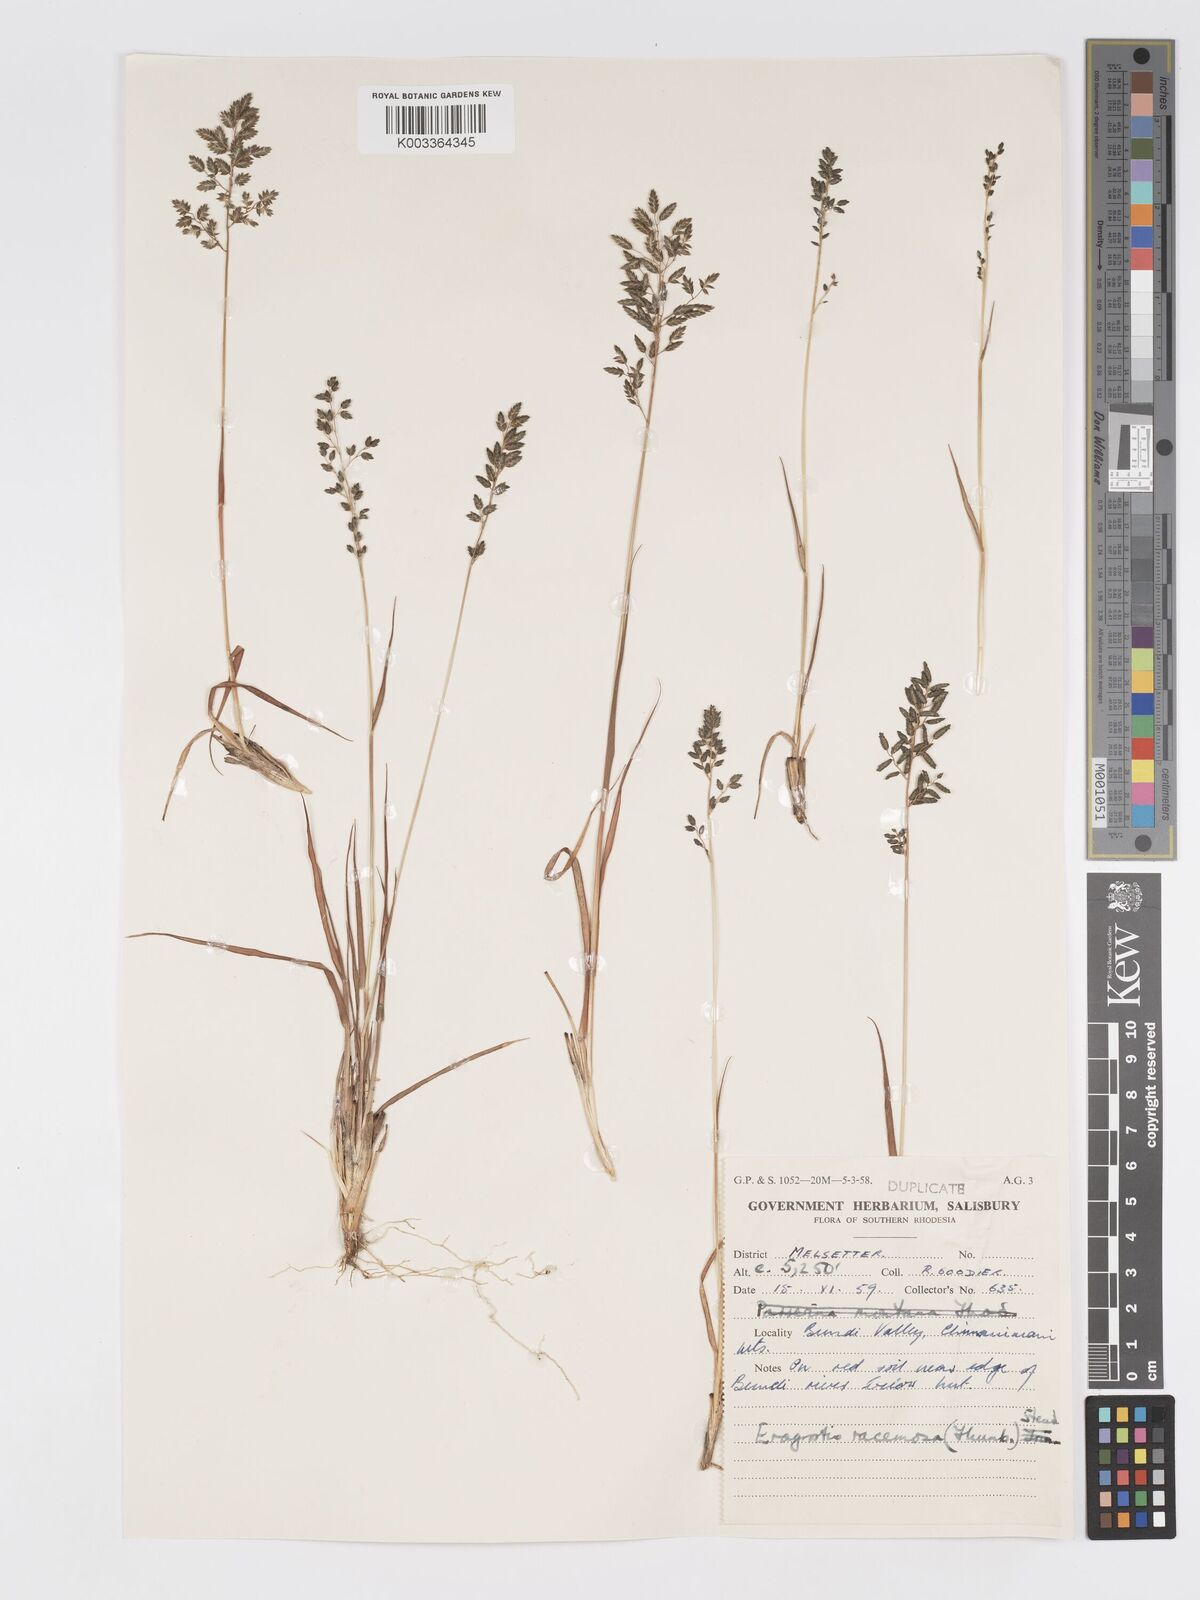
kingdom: Plantae
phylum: Tracheophyta
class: Liliopsida
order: Poales
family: Poaceae
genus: Eragrostis
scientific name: Eragrostis racemosa
